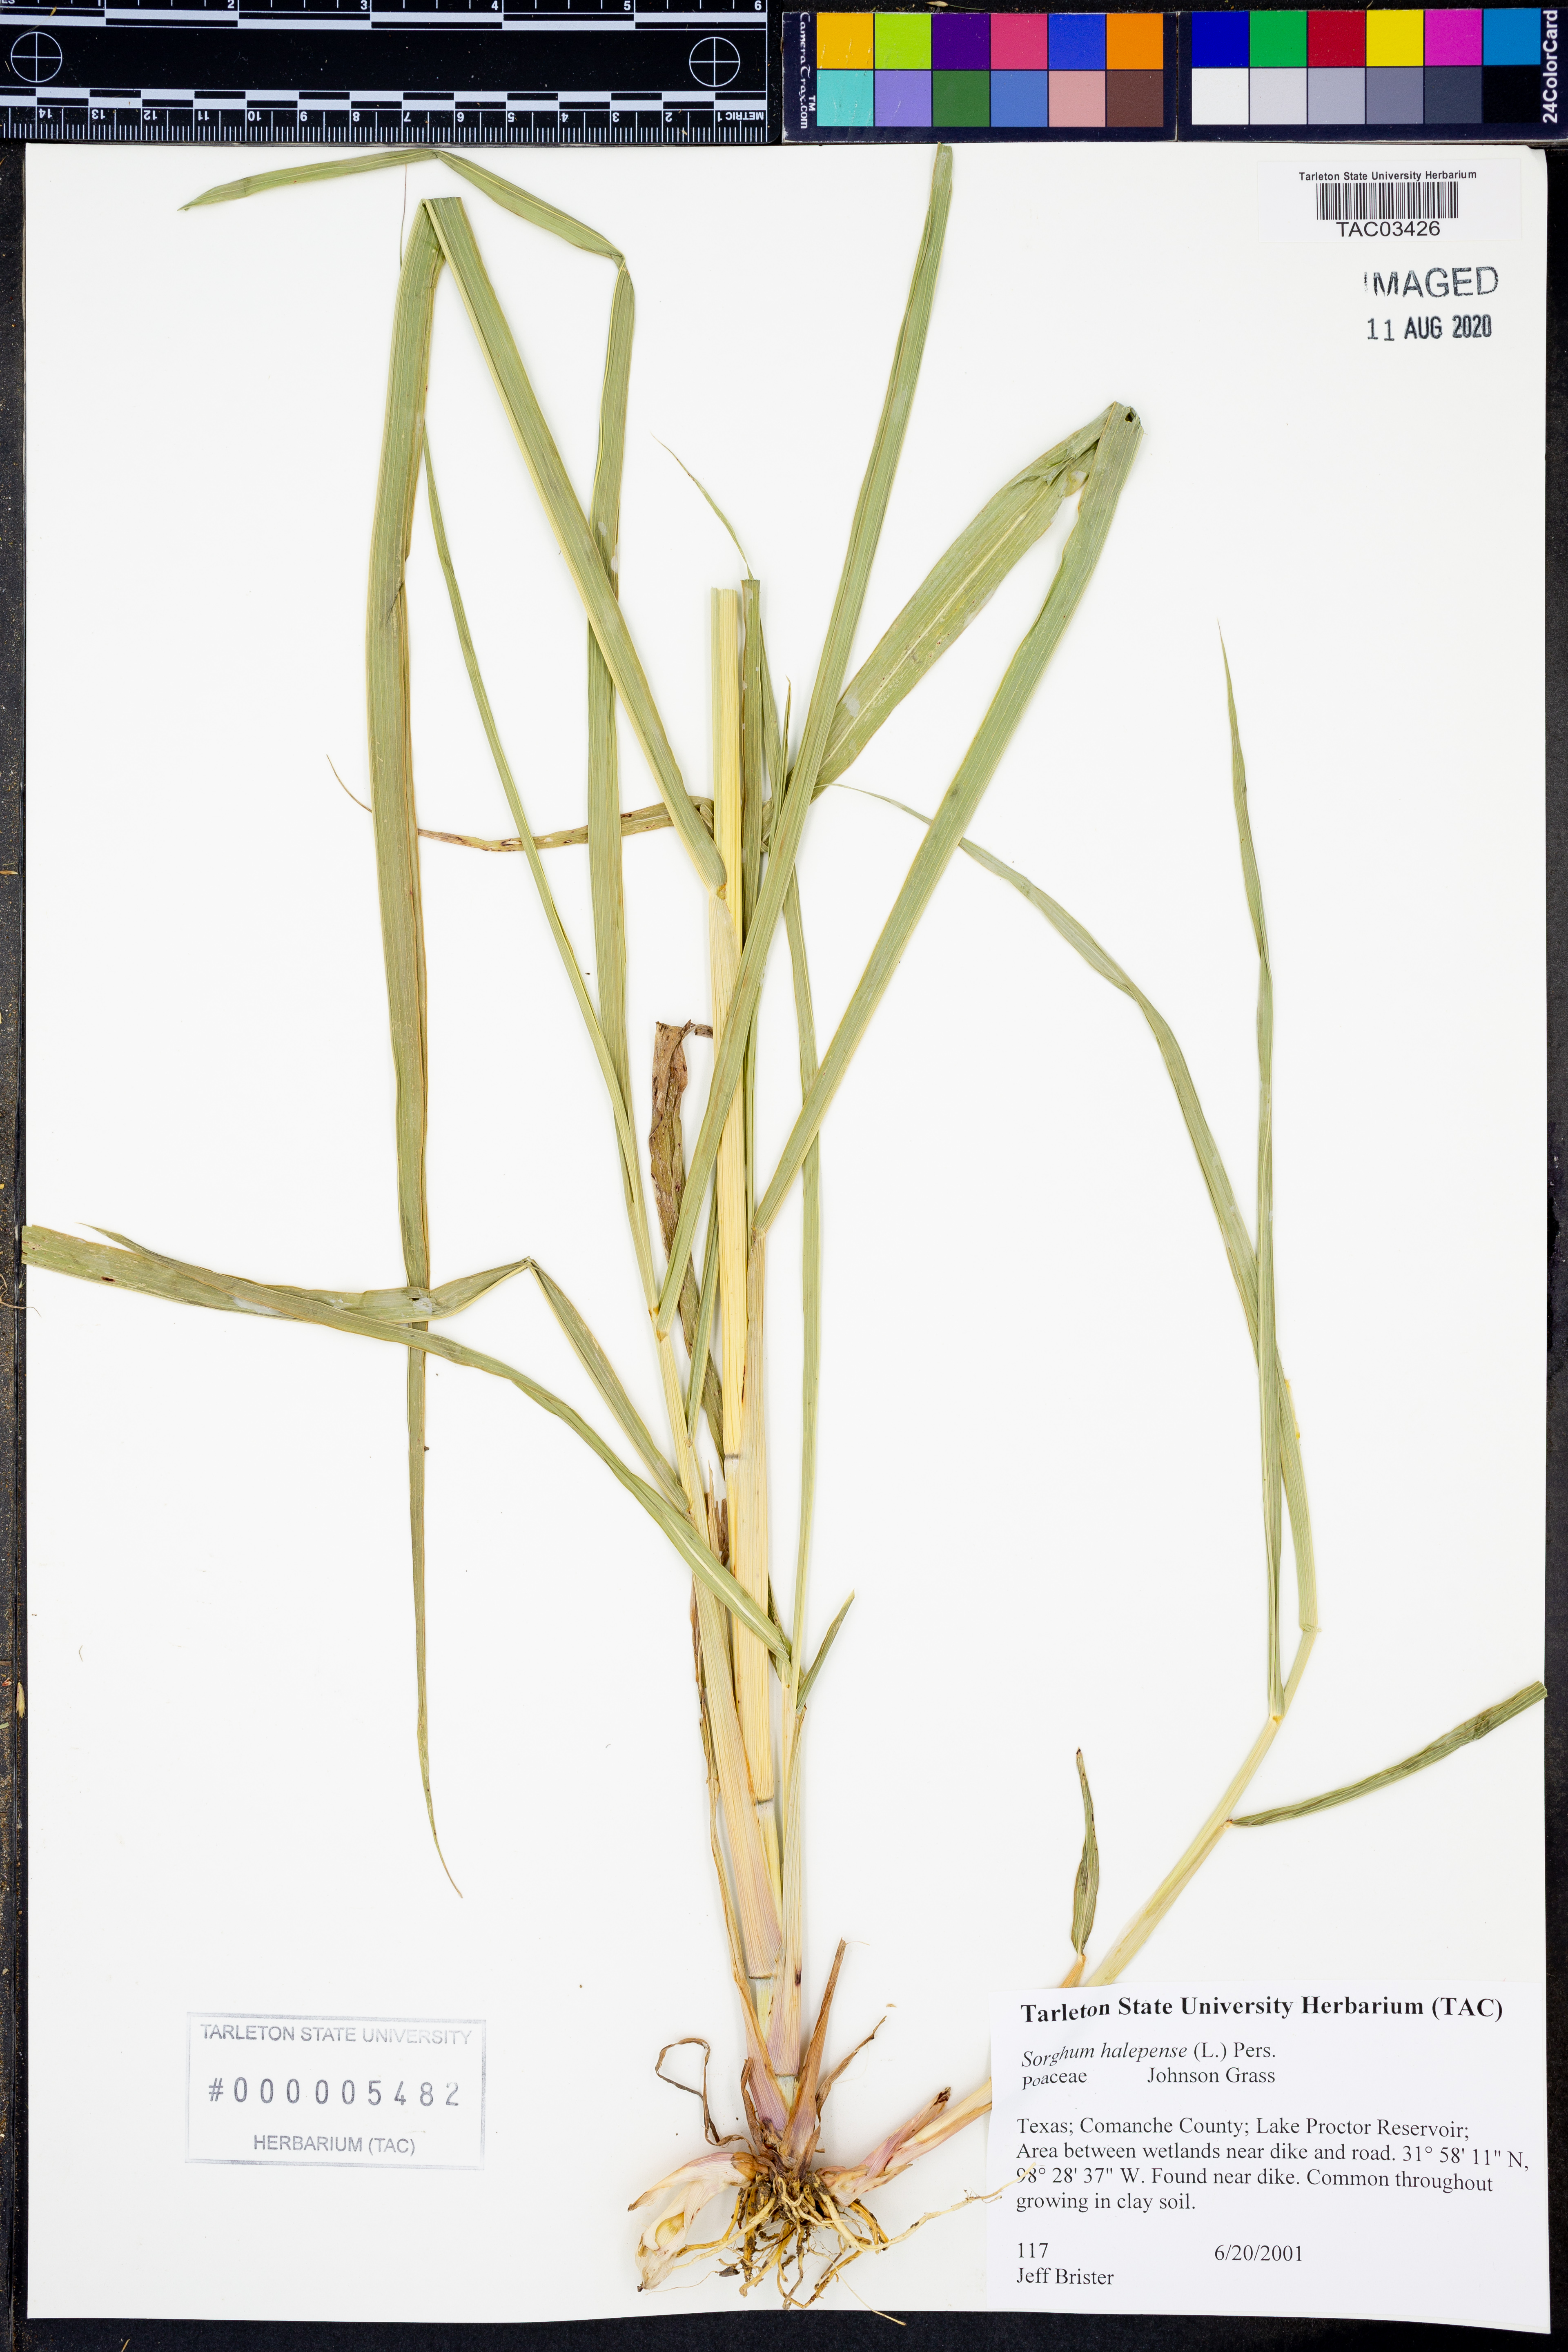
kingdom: Plantae
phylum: Tracheophyta
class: Liliopsida
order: Poales
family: Poaceae
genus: Sorghum
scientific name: Sorghum halepense
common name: Johnson-grass
